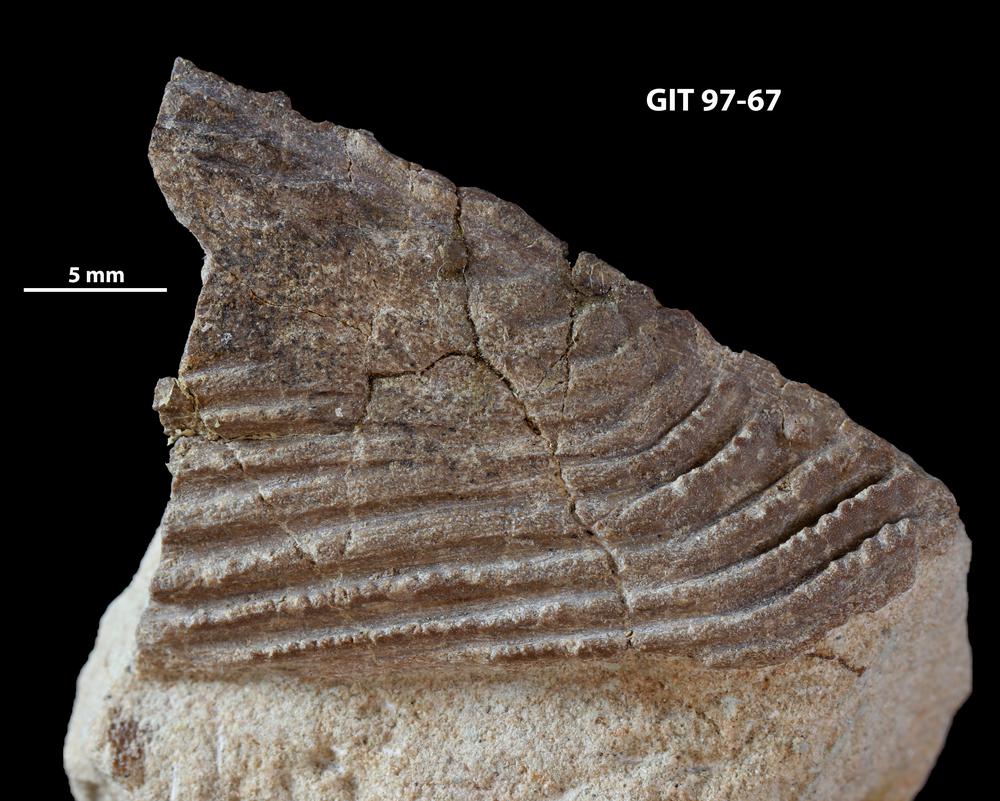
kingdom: Animalia
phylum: Chordata
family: Holonematidae
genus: Holonema
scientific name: Holonema
